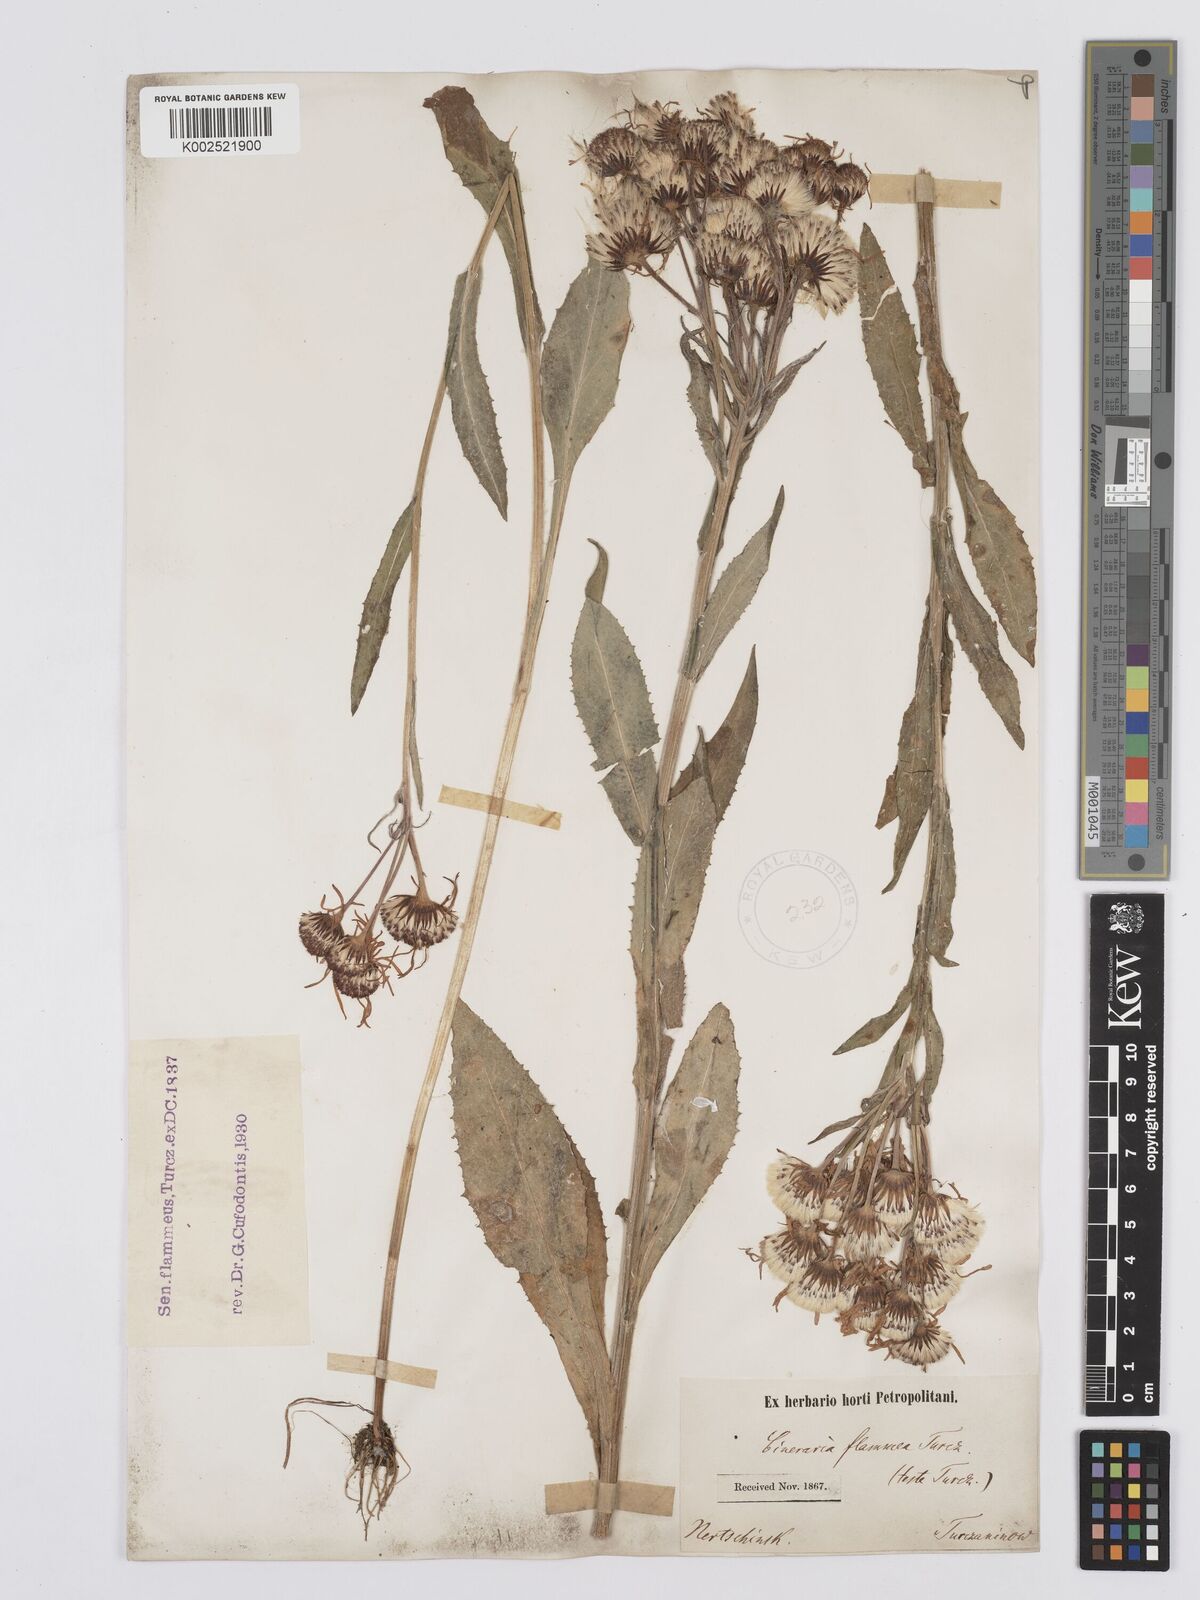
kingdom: Plantae
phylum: Tracheophyta
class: Magnoliopsida
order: Asterales
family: Asteraceae
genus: Tephroseris
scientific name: Tephroseris flammea
